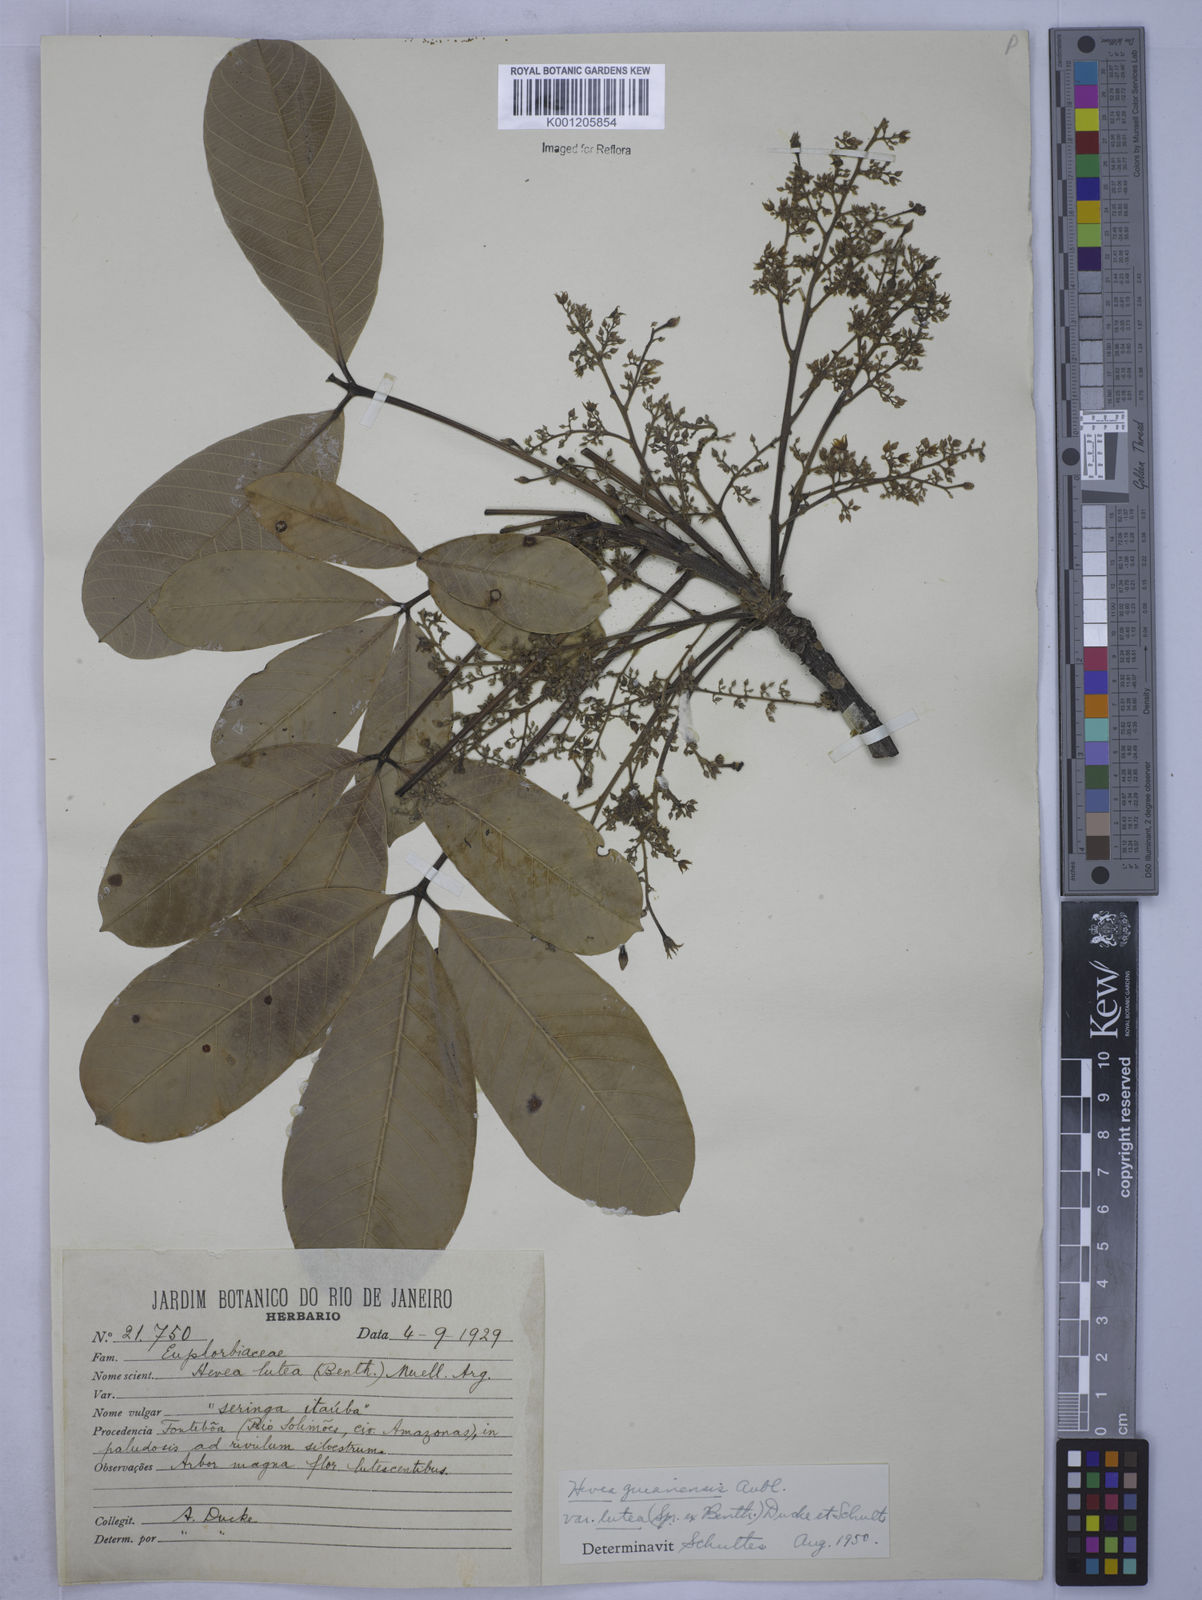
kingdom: Plantae
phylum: Tracheophyta
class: Magnoliopsida
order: Malpighiales
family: Euphorbiaceae
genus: Hevea
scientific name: Hevea guianensis
